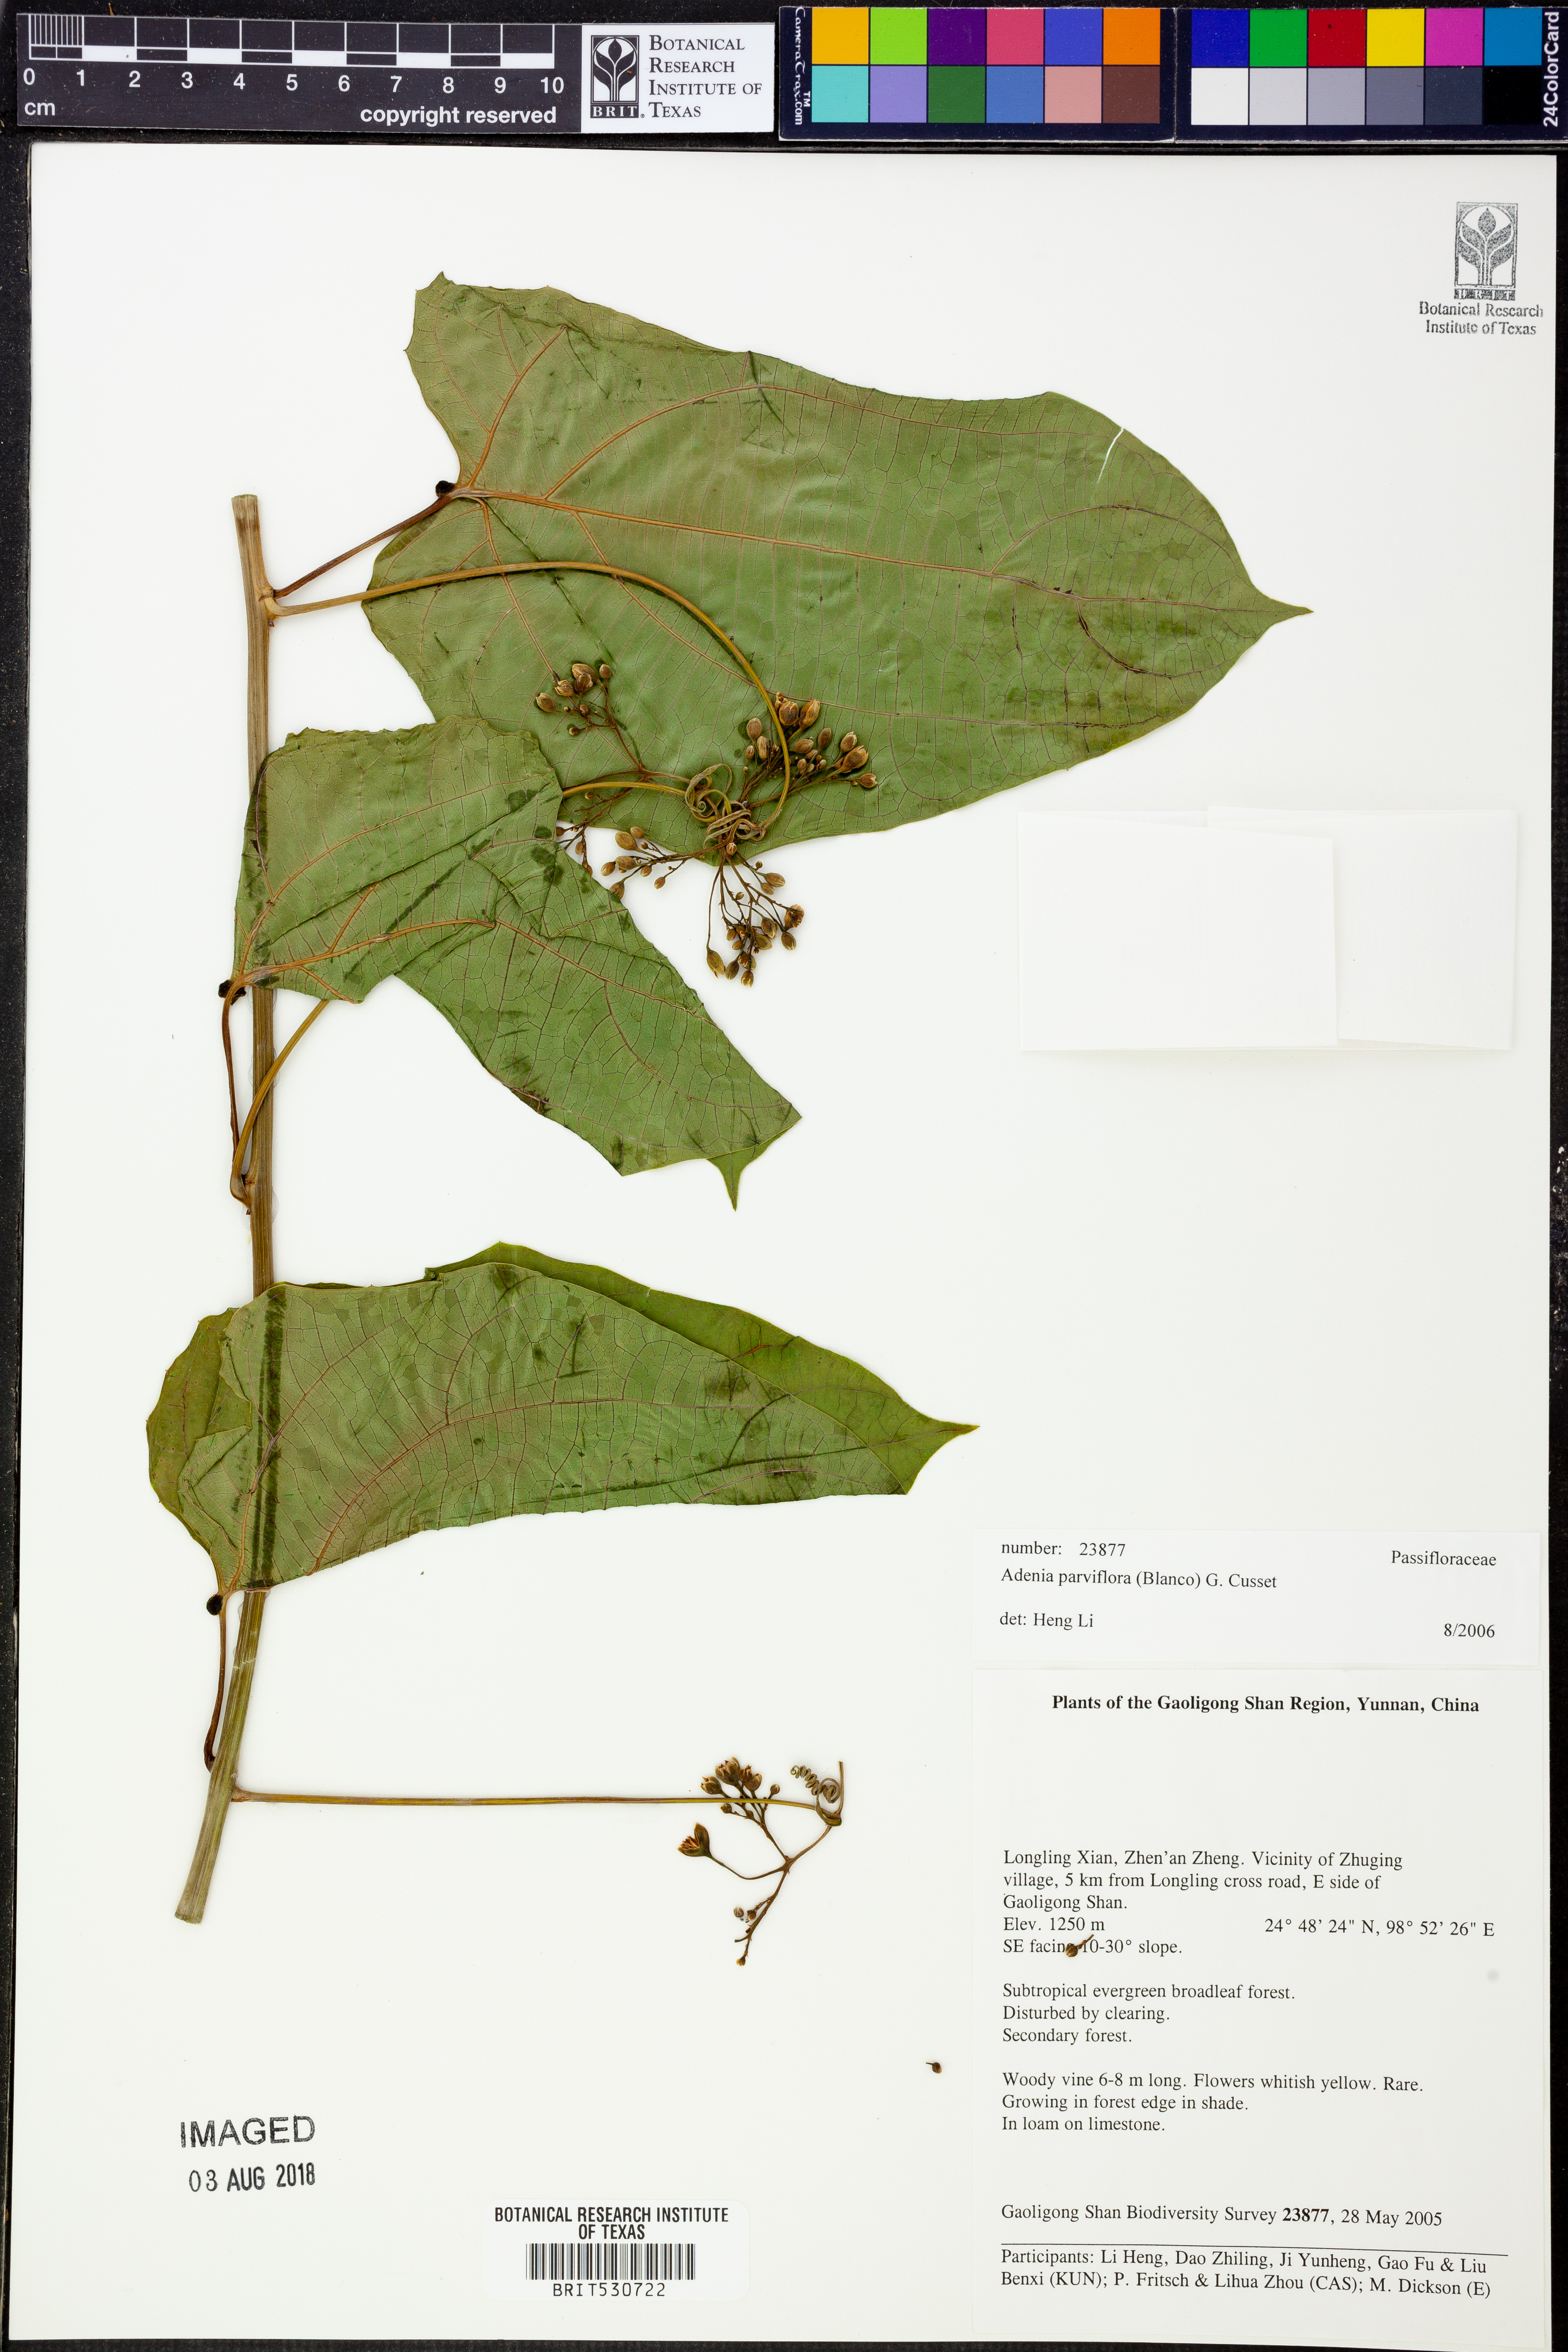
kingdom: Plantae
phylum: Tracheophyta
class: Magnoliopsida
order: Malpighiales
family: Passifloraceae
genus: Adenia
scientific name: Adenia heterophylla
